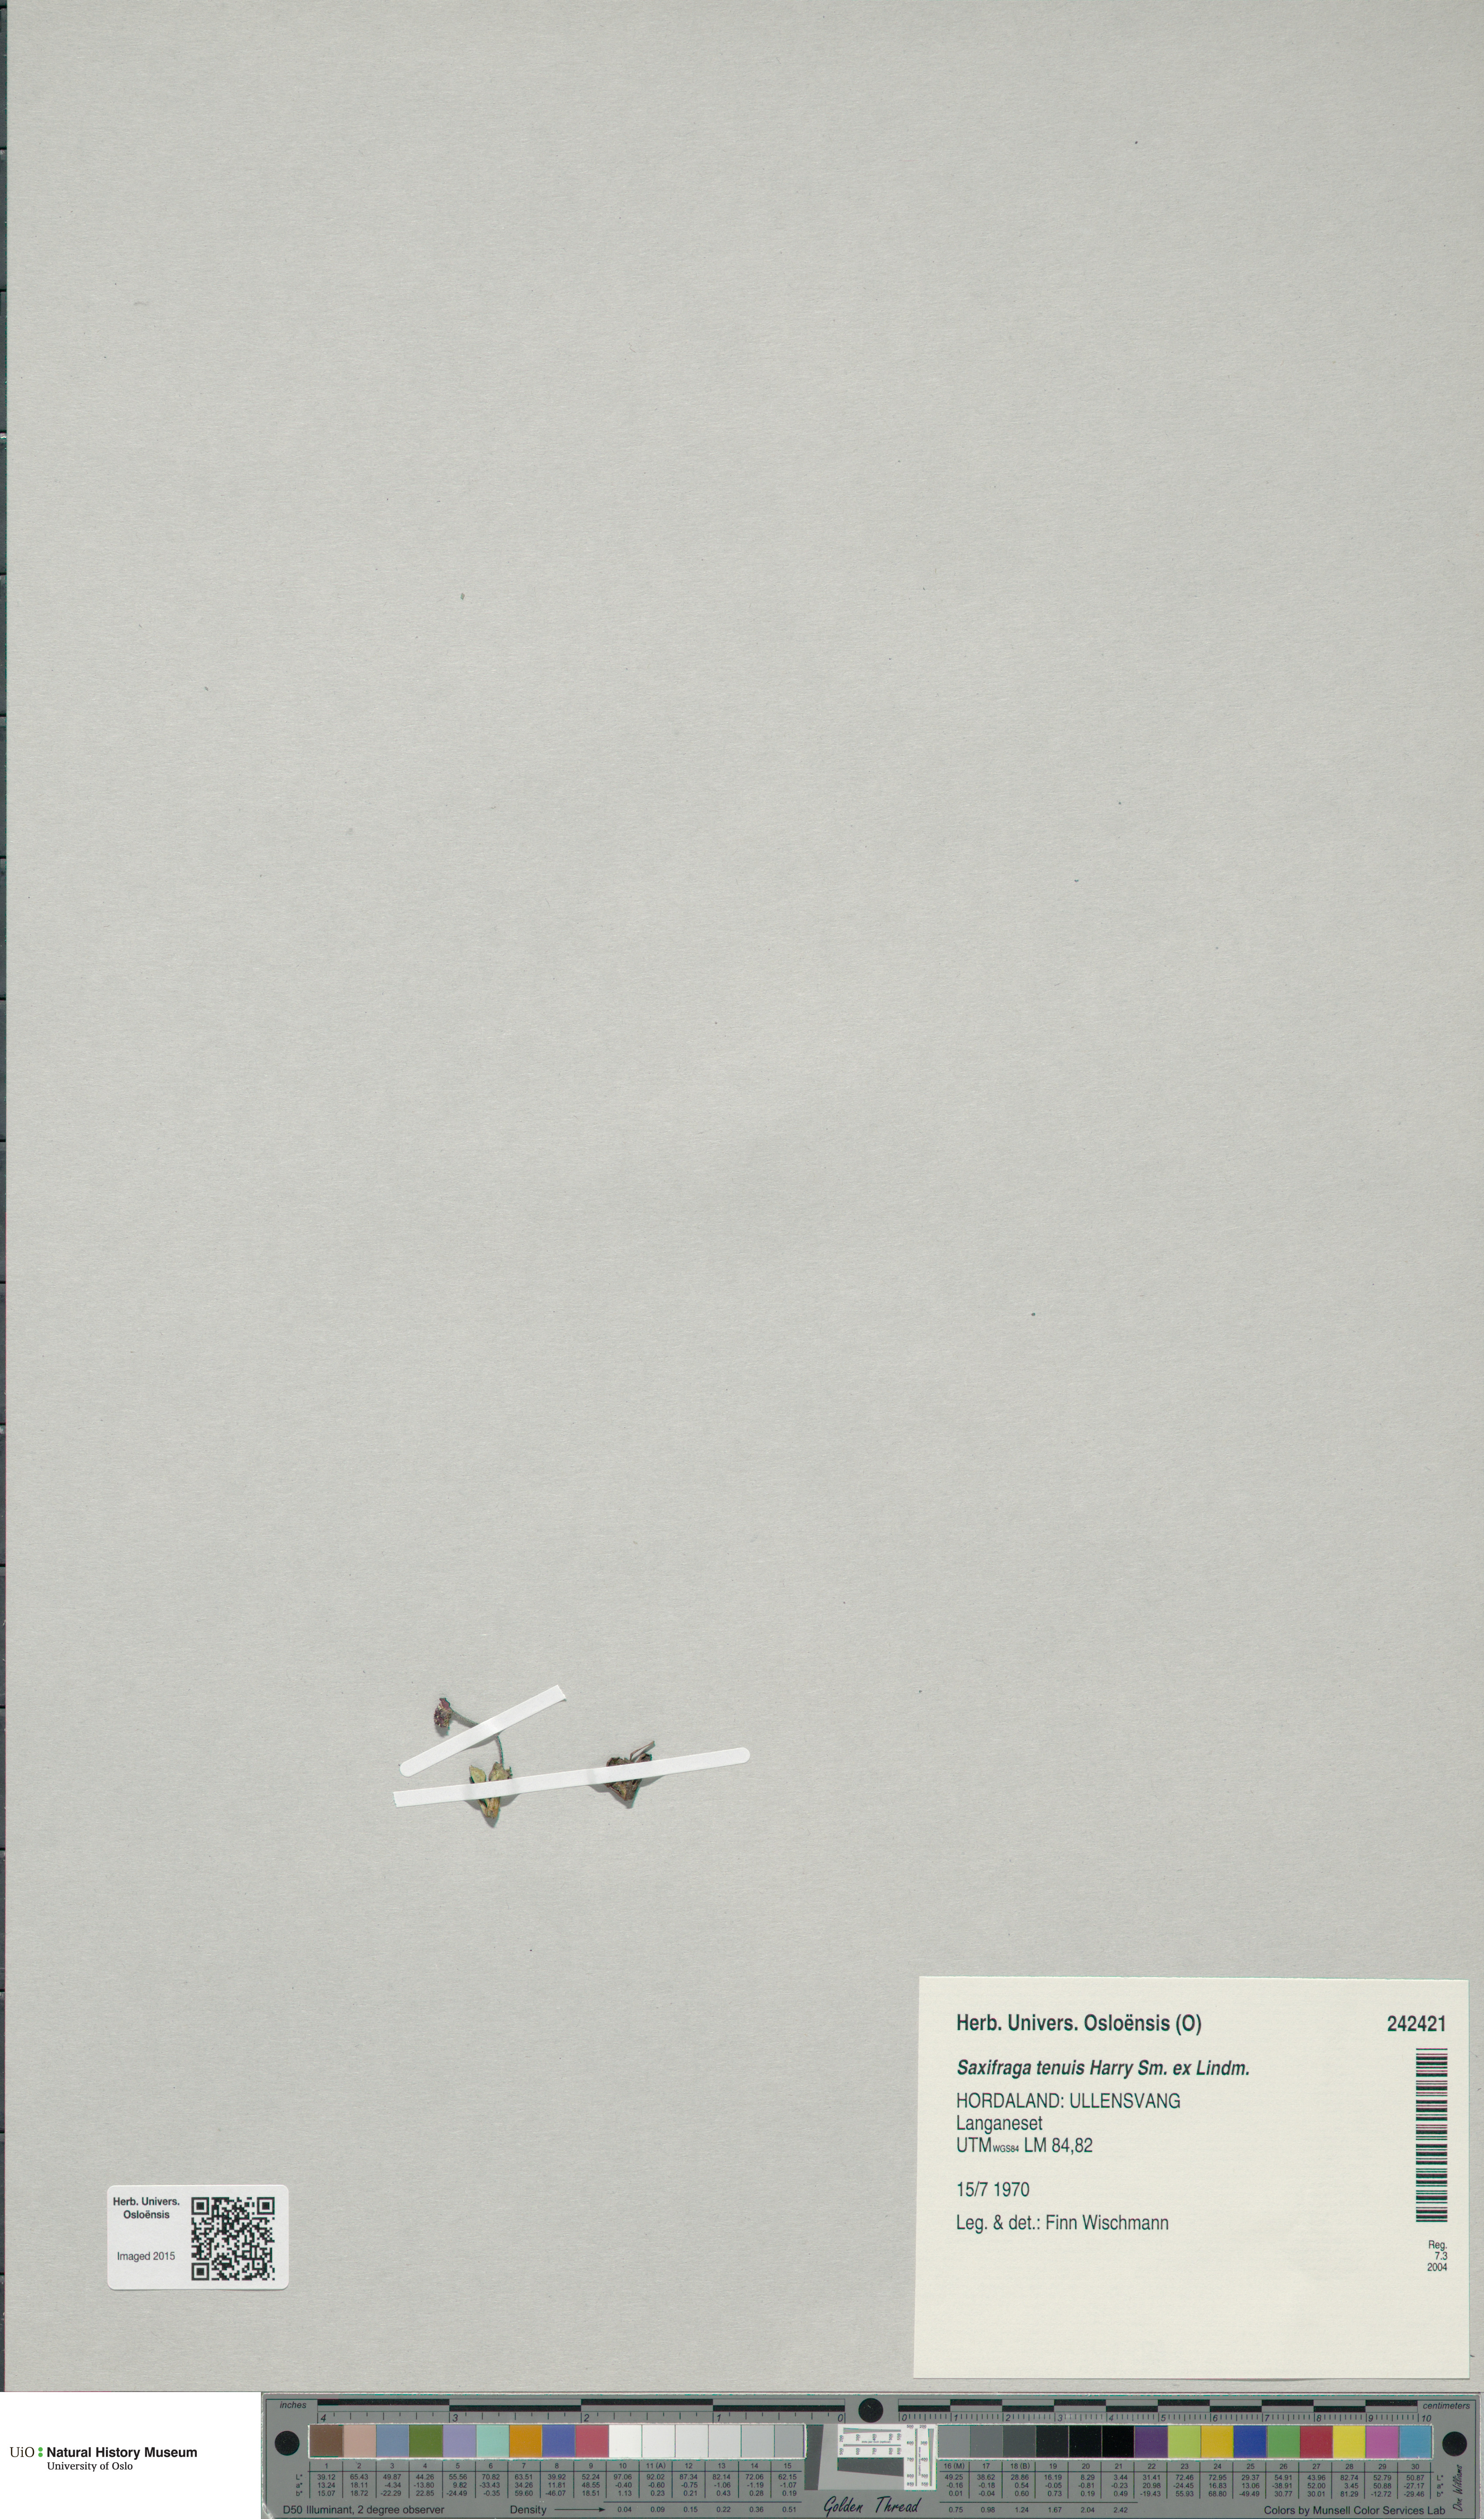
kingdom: Plantae
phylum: Tracheophyta
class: Magnoliopsida
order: Saxifragales
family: Saxifragaceae
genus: Micranthes
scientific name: Micranthes tenuis
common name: Ottertail pass saxifrage
